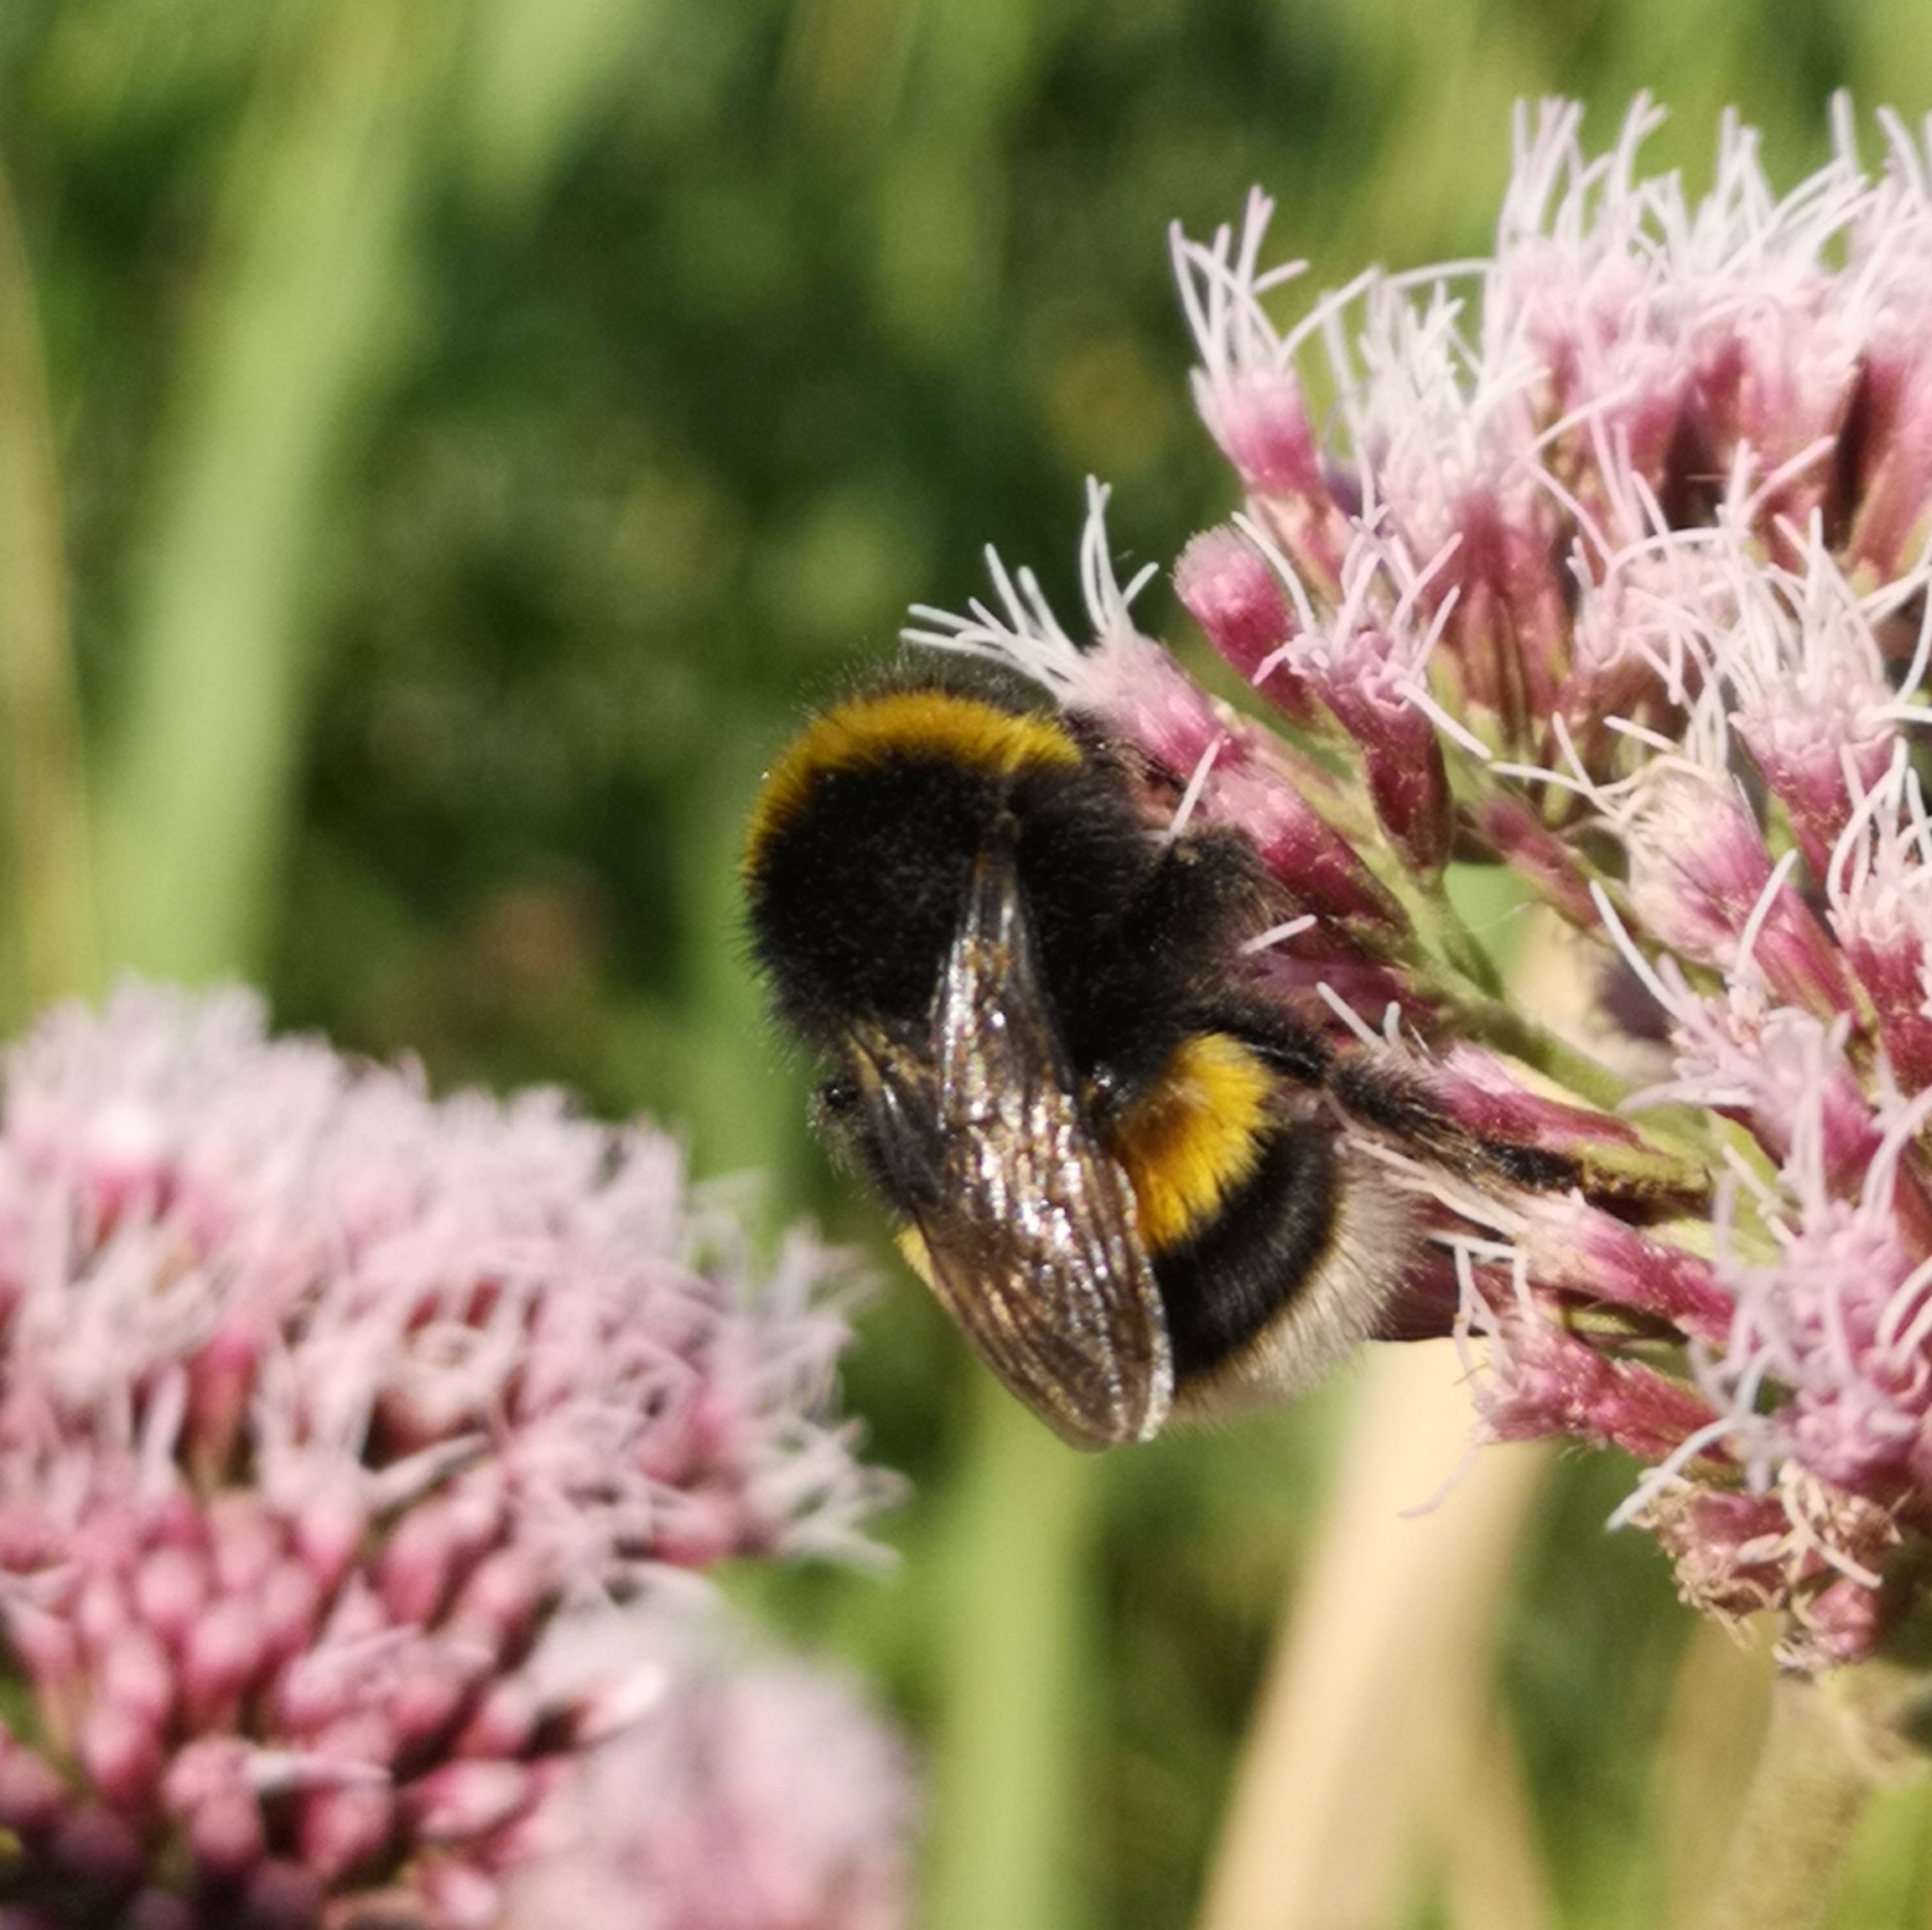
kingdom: Animalia
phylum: Arthropoda
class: Insecta
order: Hymenoptera
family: Apidae
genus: Bombus
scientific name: Bombus
